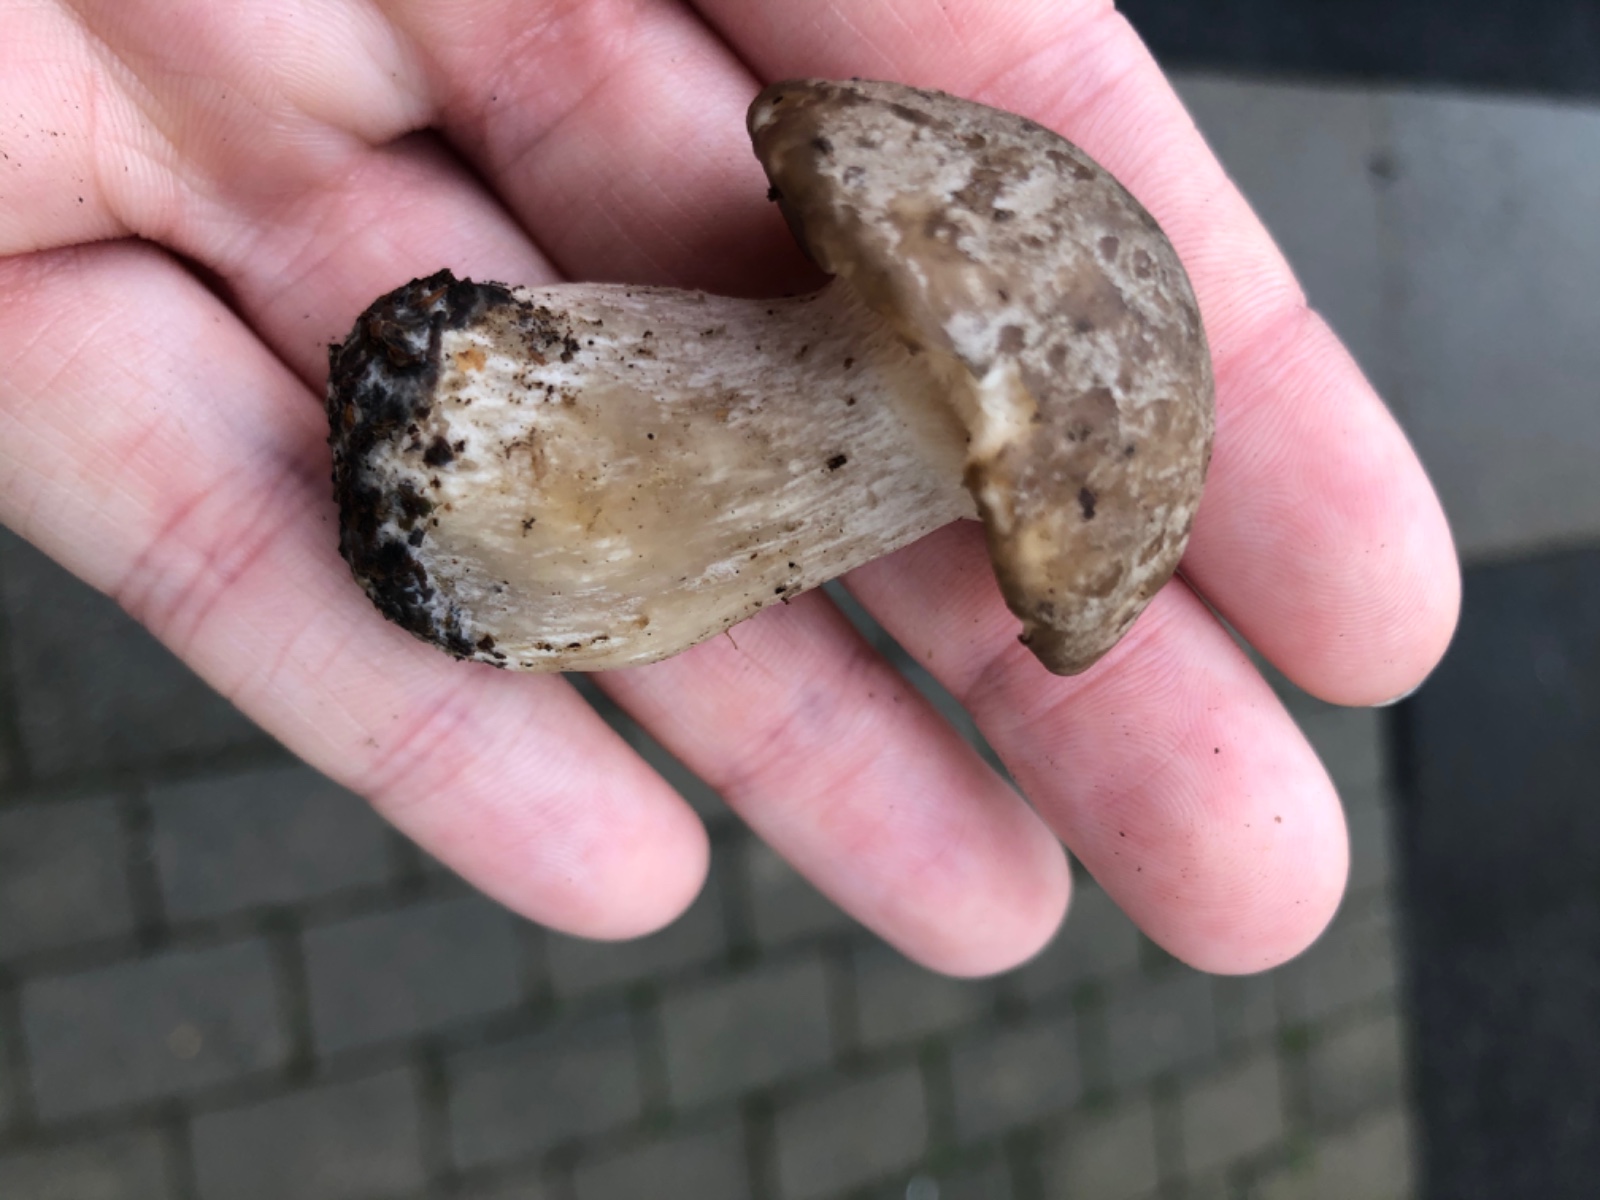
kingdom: Fungi
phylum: Basidiomycota
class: Agaricomycetes
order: Agaricales
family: Tricholomataceae
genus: Clitocybe
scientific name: Clitocybe nebularis
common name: tåge-tragthat
